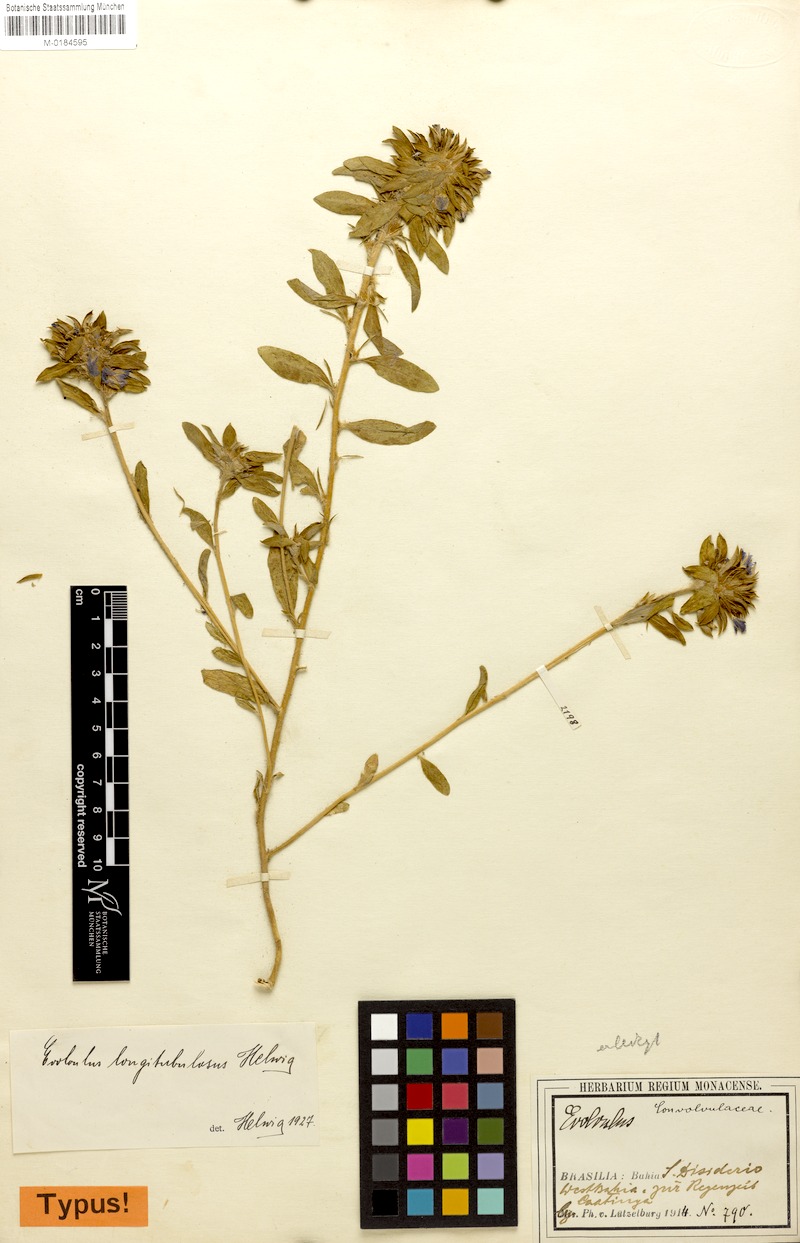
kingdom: Plantae
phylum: Tracheophyta
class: Magnoliopsida
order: Solanales
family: Convolvulaceae
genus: Evolvulus
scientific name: Evolvulus chamaepitys
